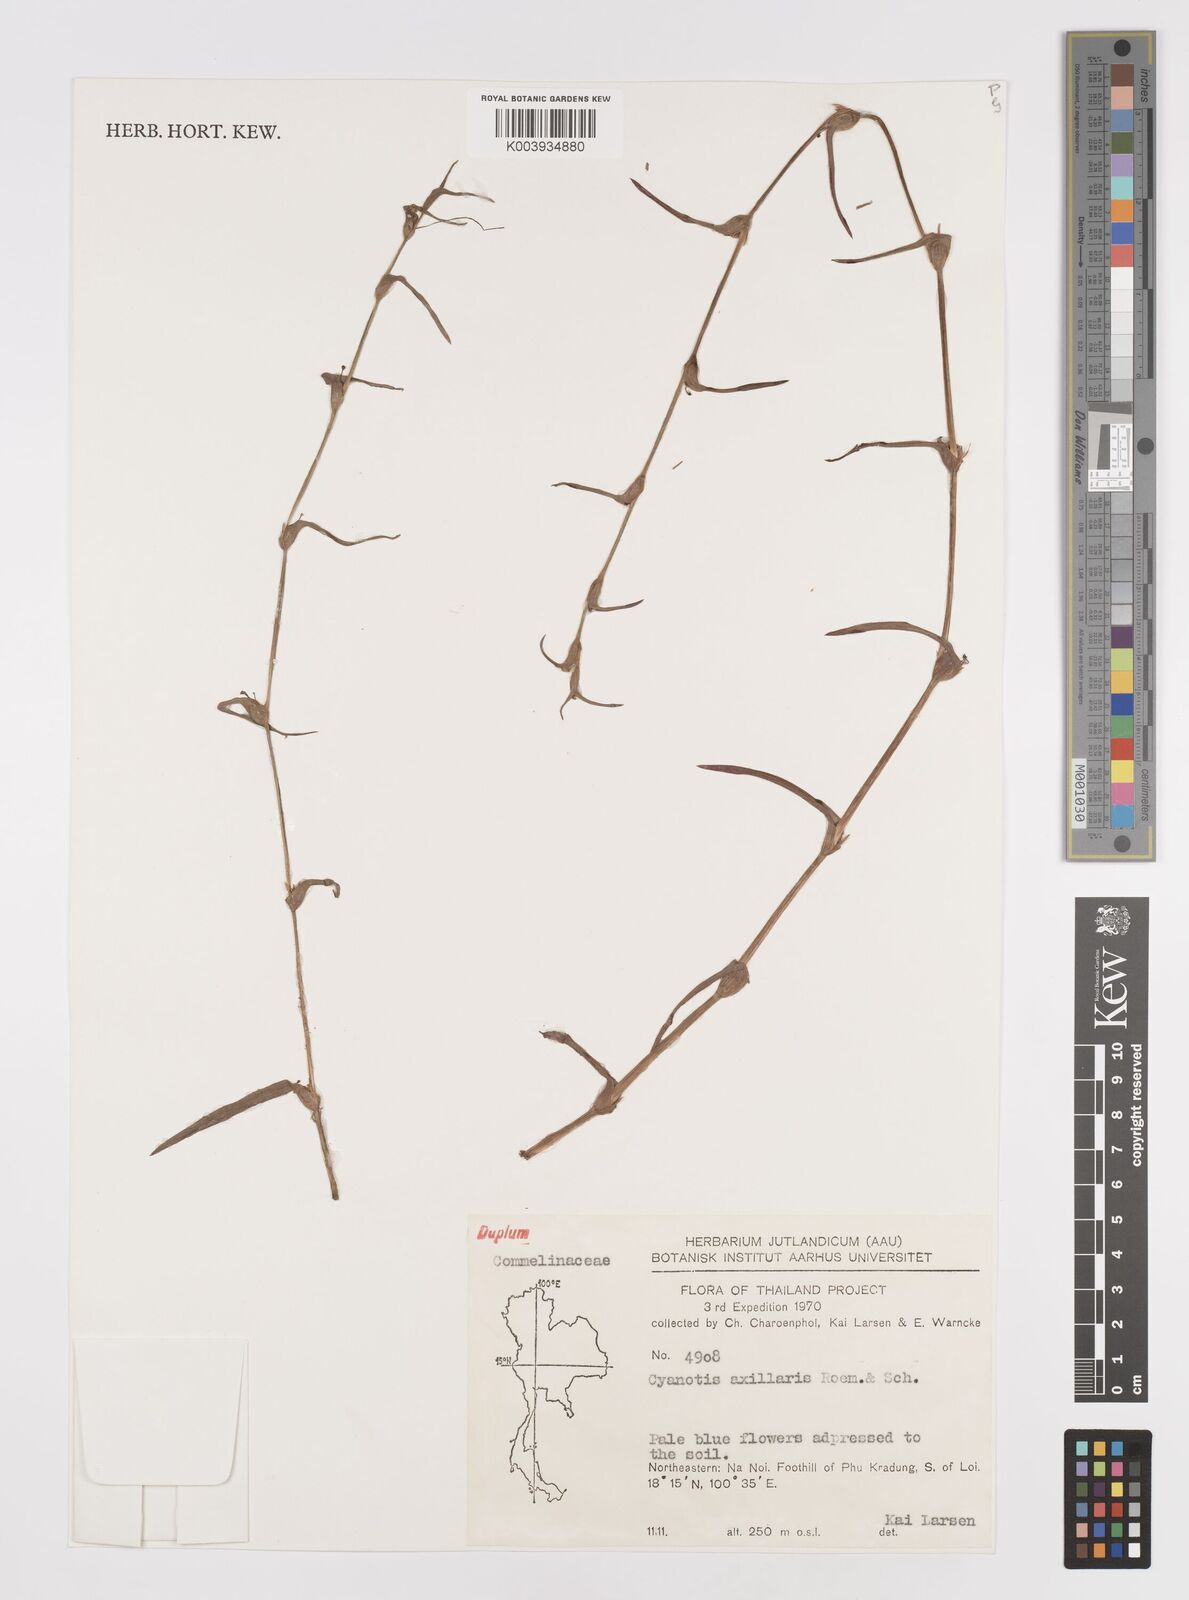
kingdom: Plantae
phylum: Tracheophyta
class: Liliopsida
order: Commelinales
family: Commelinaceae
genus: Cyanotis
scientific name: Cyanotis axillaris
